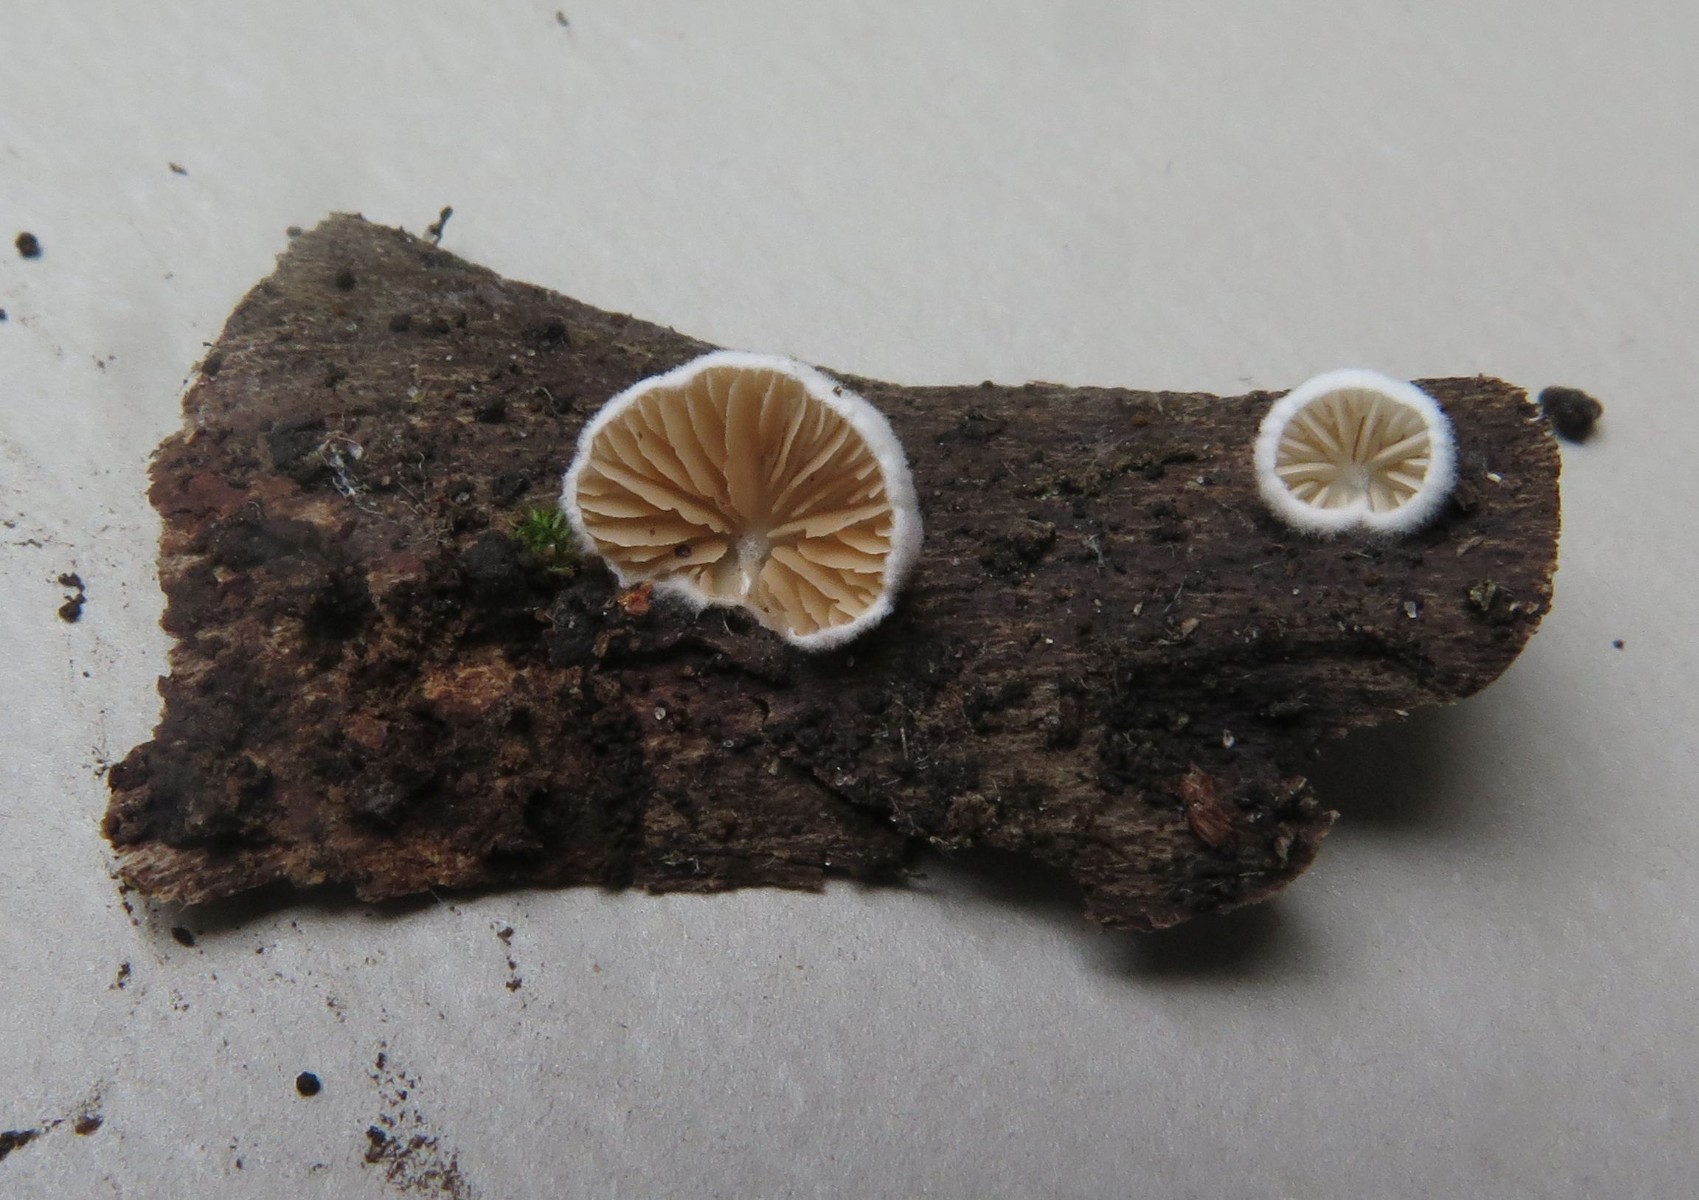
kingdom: Fungi
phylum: Basidiomycota
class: Agaricomycetes
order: Agaricales
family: Crepidotaceae
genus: Crepidotus
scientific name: Crepidotus cesatii
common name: almindelig muslingesvamp
